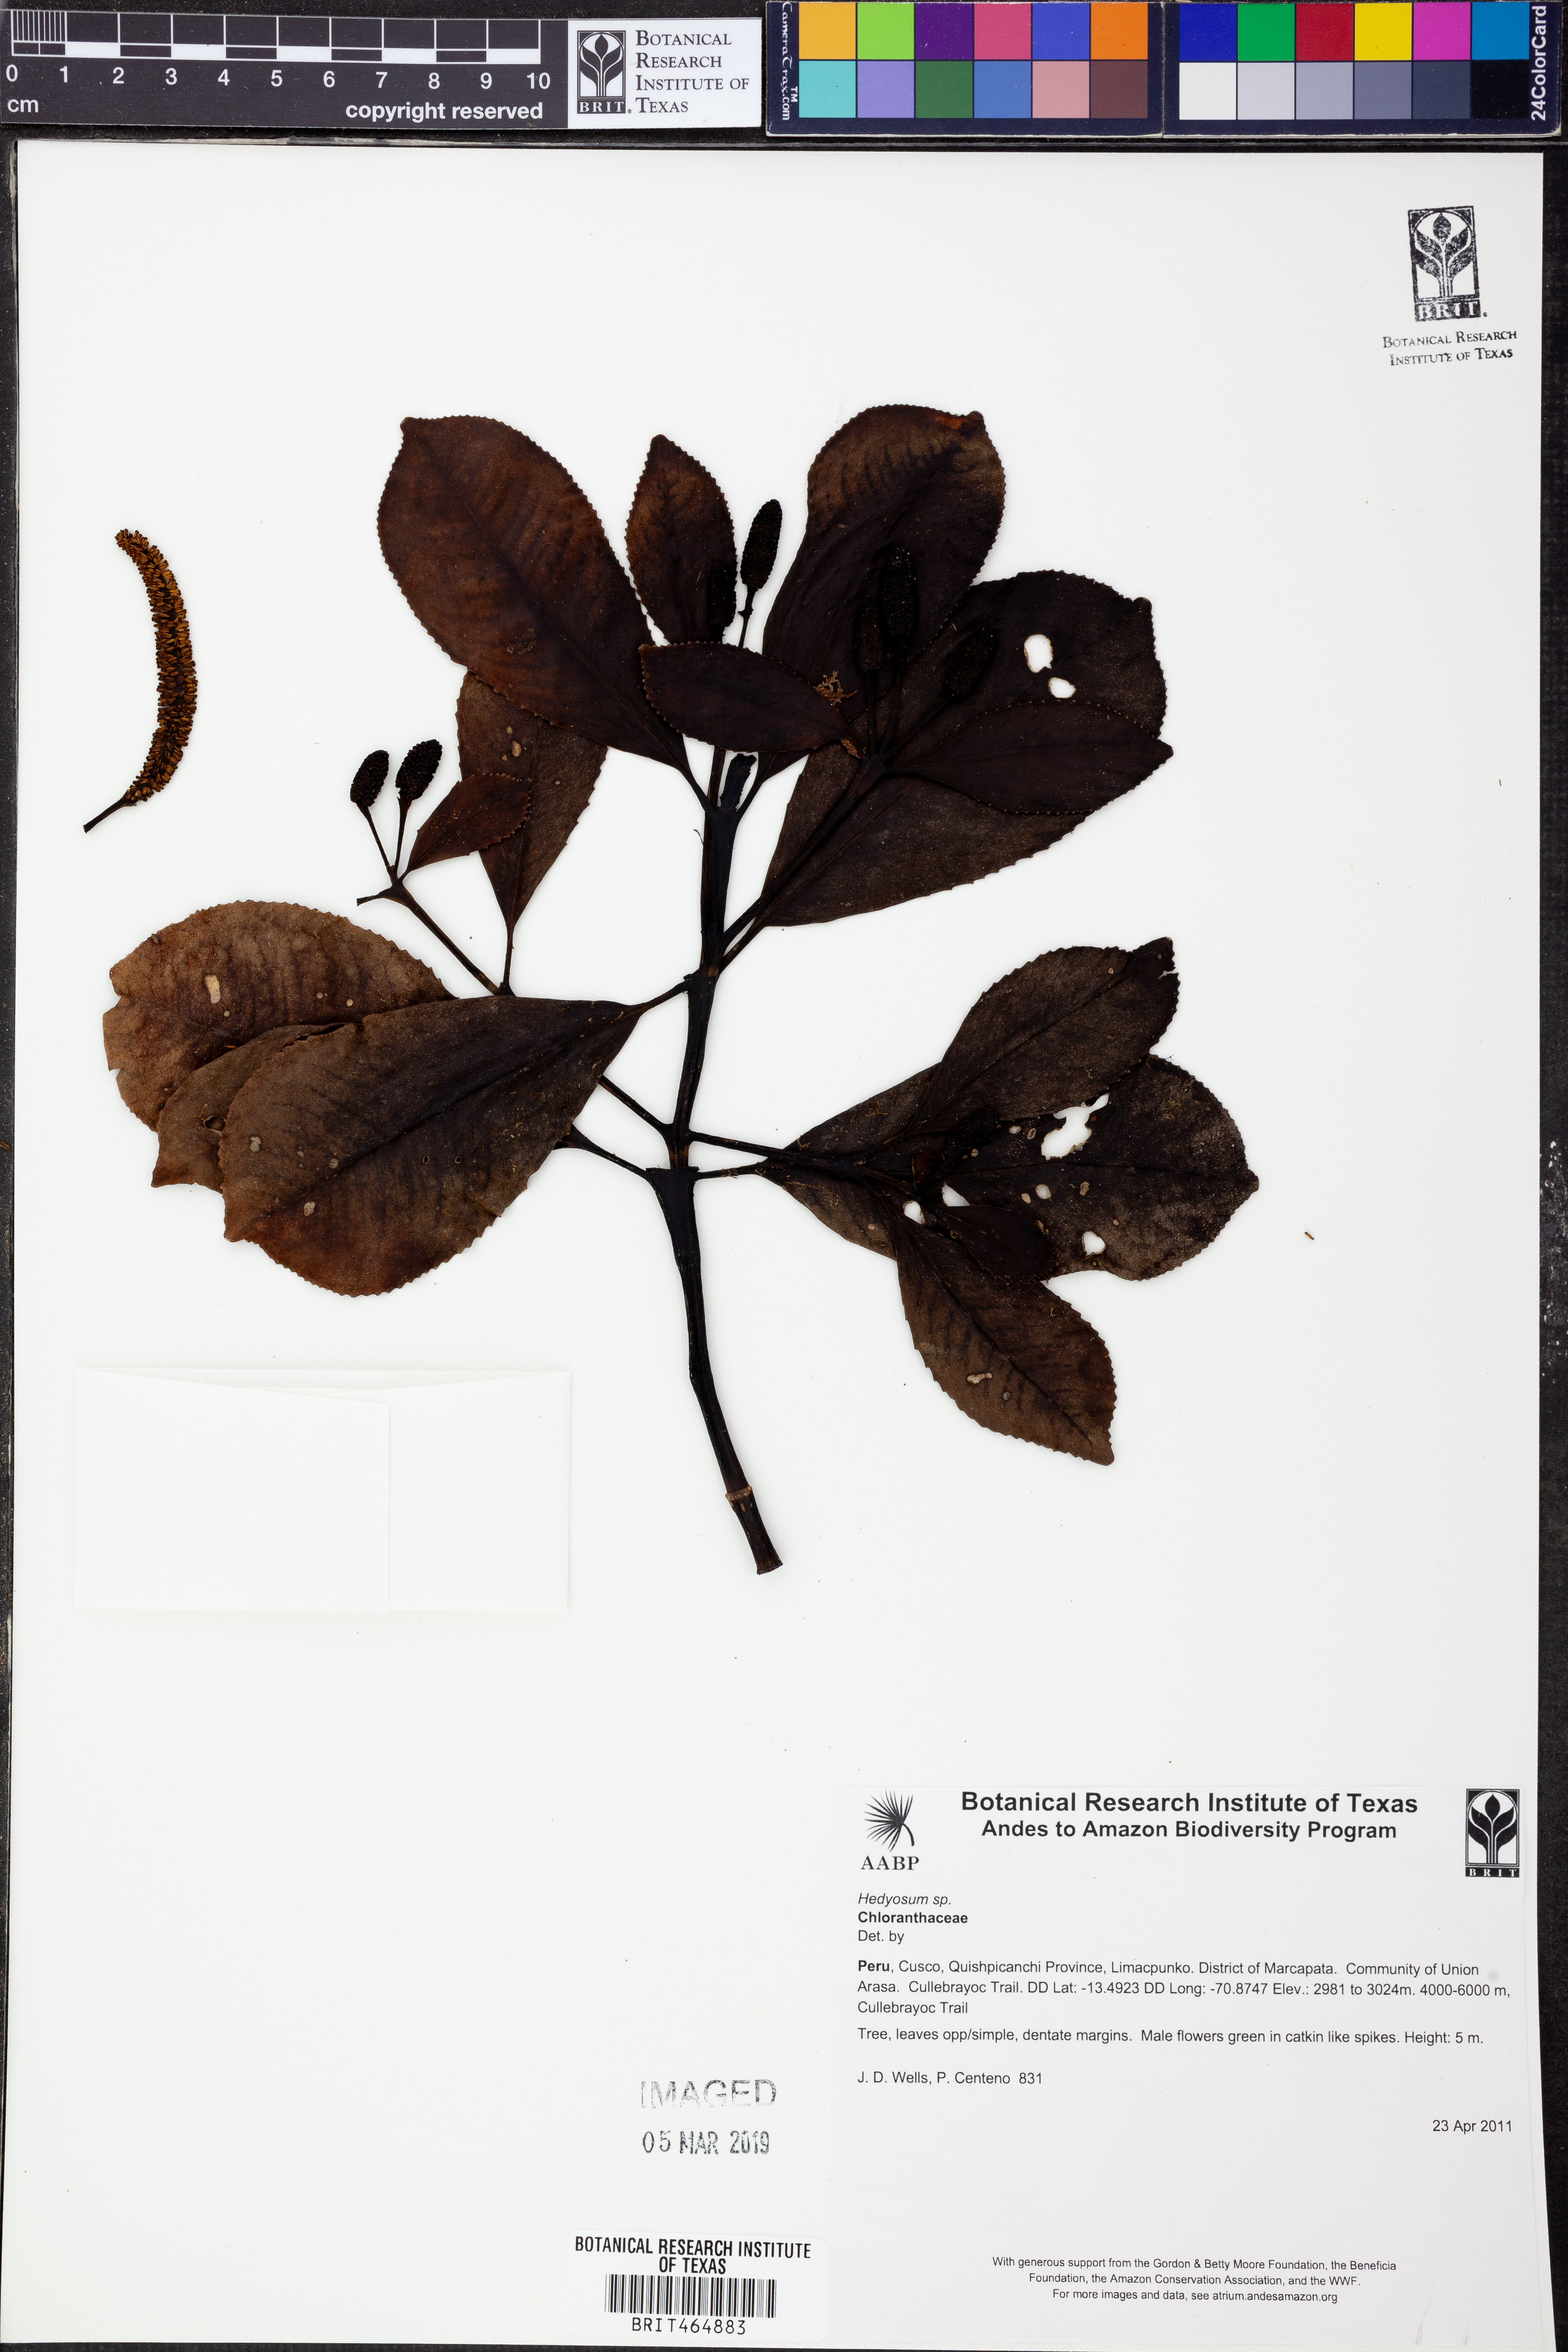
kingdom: Plantae
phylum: Tracheophyta
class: Magnoliopsida
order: Chloranthales
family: Chloranthaceae
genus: Hedyosmum
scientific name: Hedyosmum
